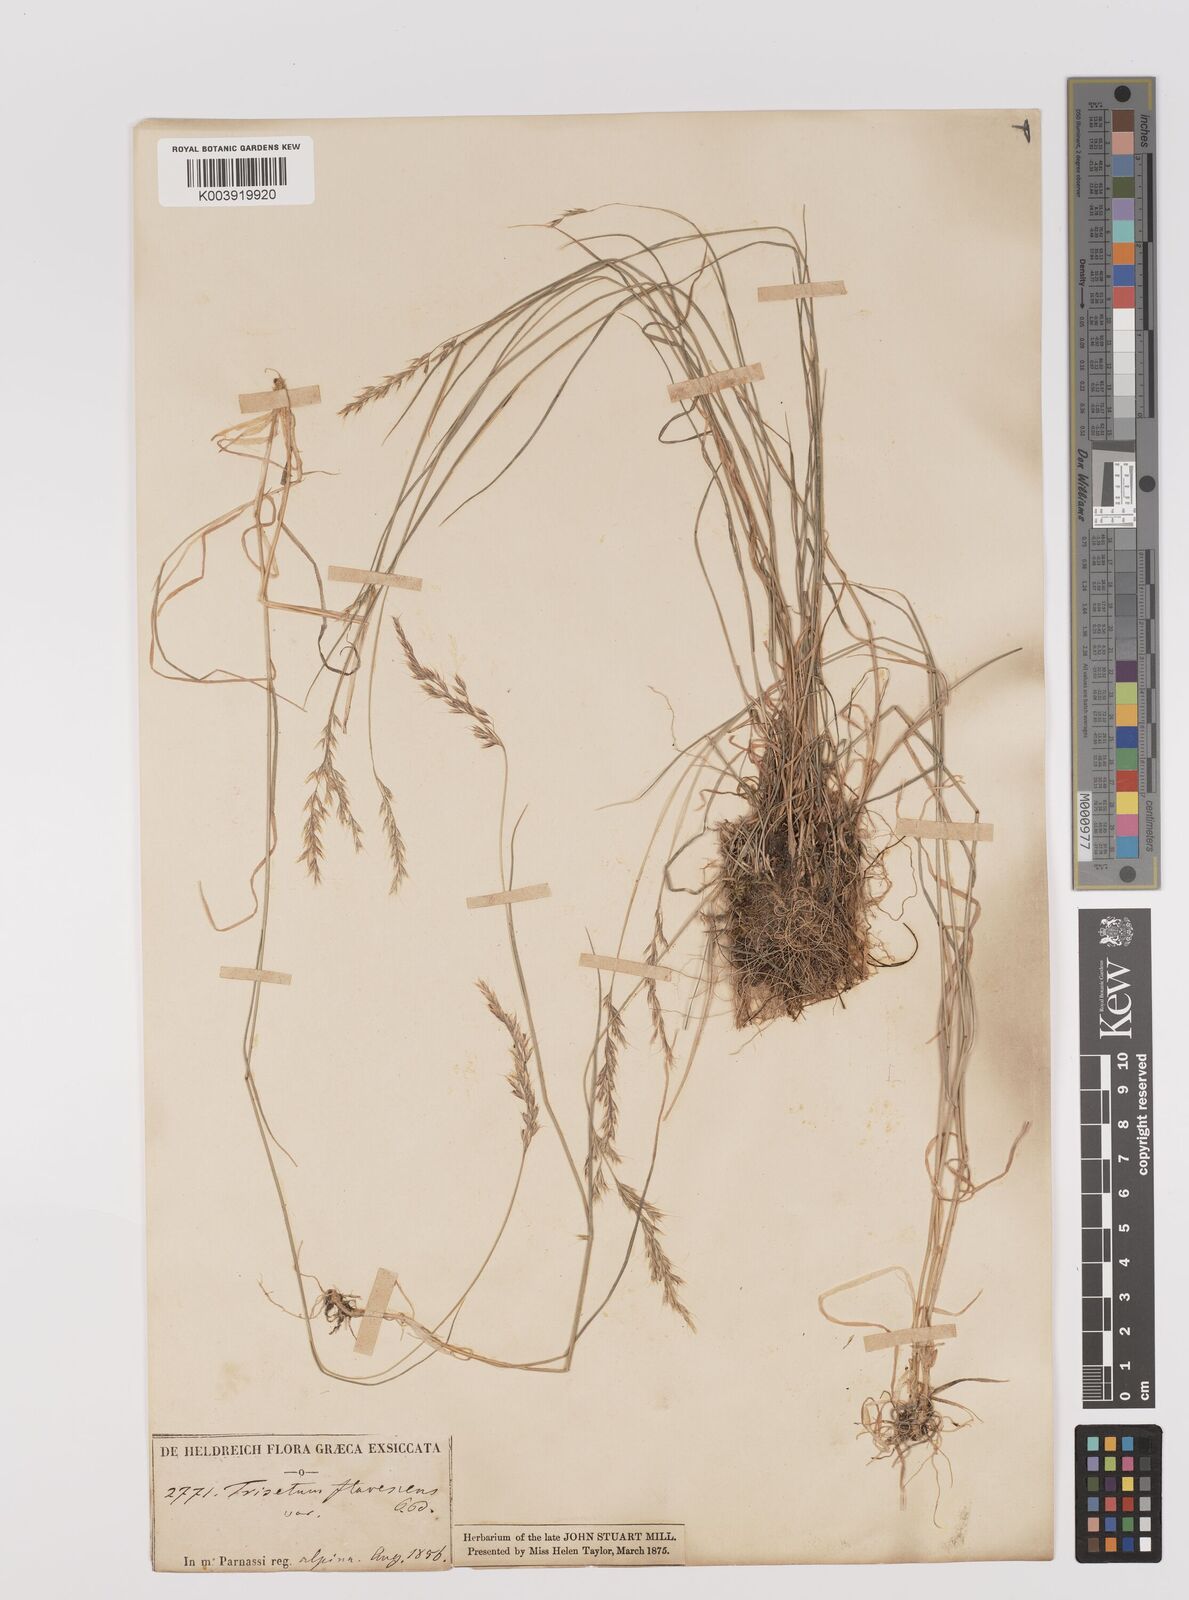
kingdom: Plantae
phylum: Tracheophyta
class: Liliopsida
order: Poales
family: Poaceae
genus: Trisetum
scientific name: Trisetum flavescens
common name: Yellow oat-grass
